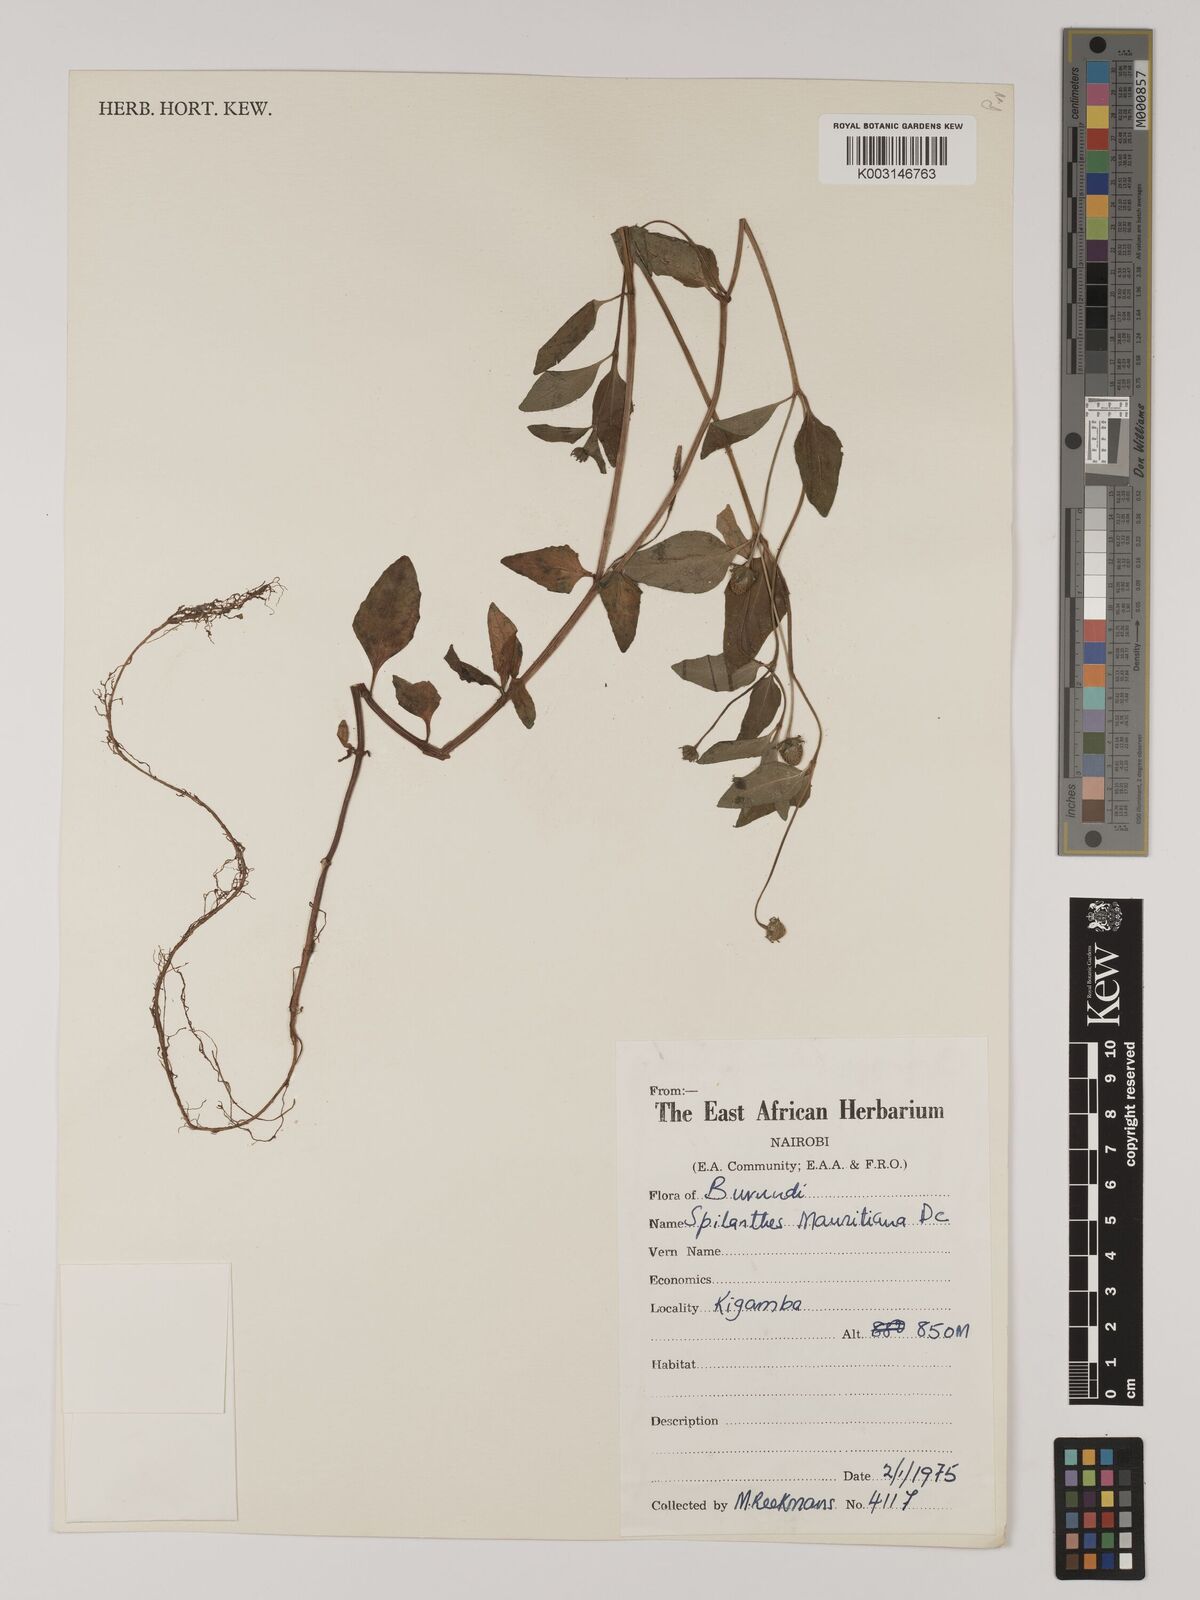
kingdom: Plantae
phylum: Tracheophyta
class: Magnoliopsida
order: Asterales
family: Asteraceae
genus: Blainvillea
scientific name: Blainvillea acmella
